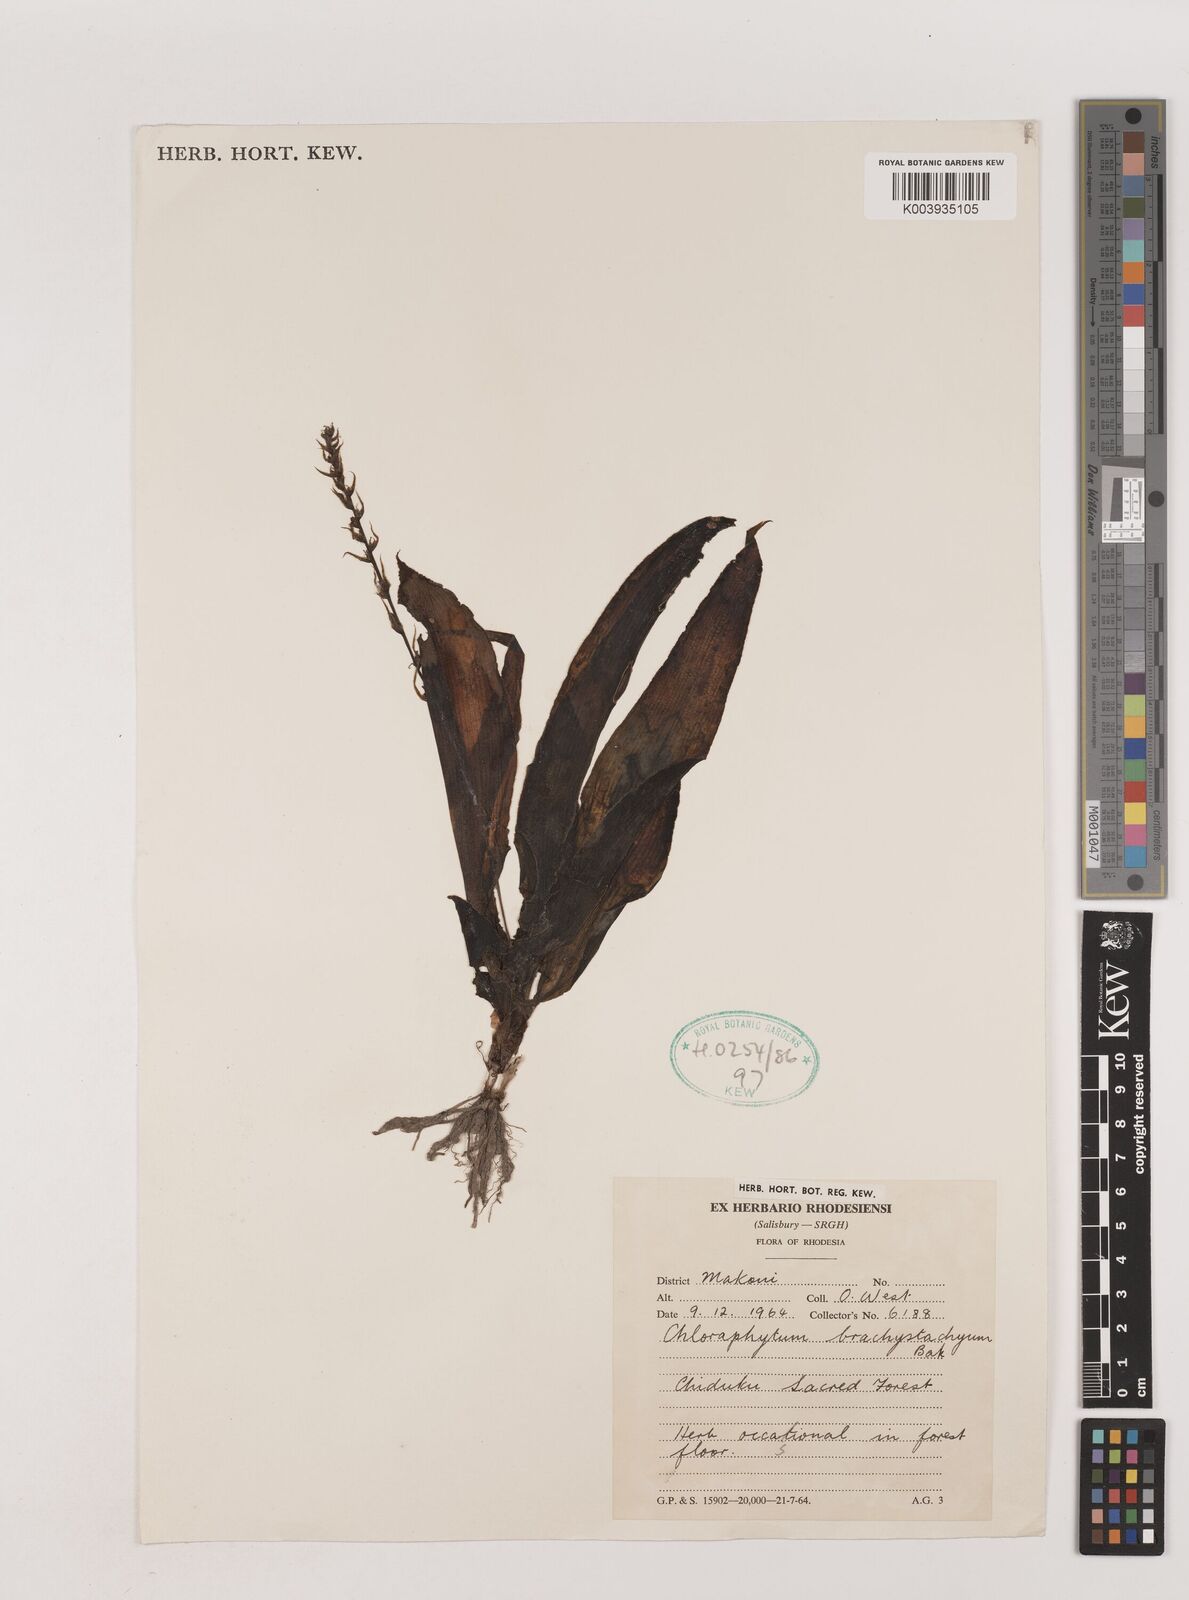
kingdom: Plantae
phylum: Tracheophyta
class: Liliopsida
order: Asparagales
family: Asparagaceae
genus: Chlorophytum
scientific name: Chlorophytum brachystachyum
